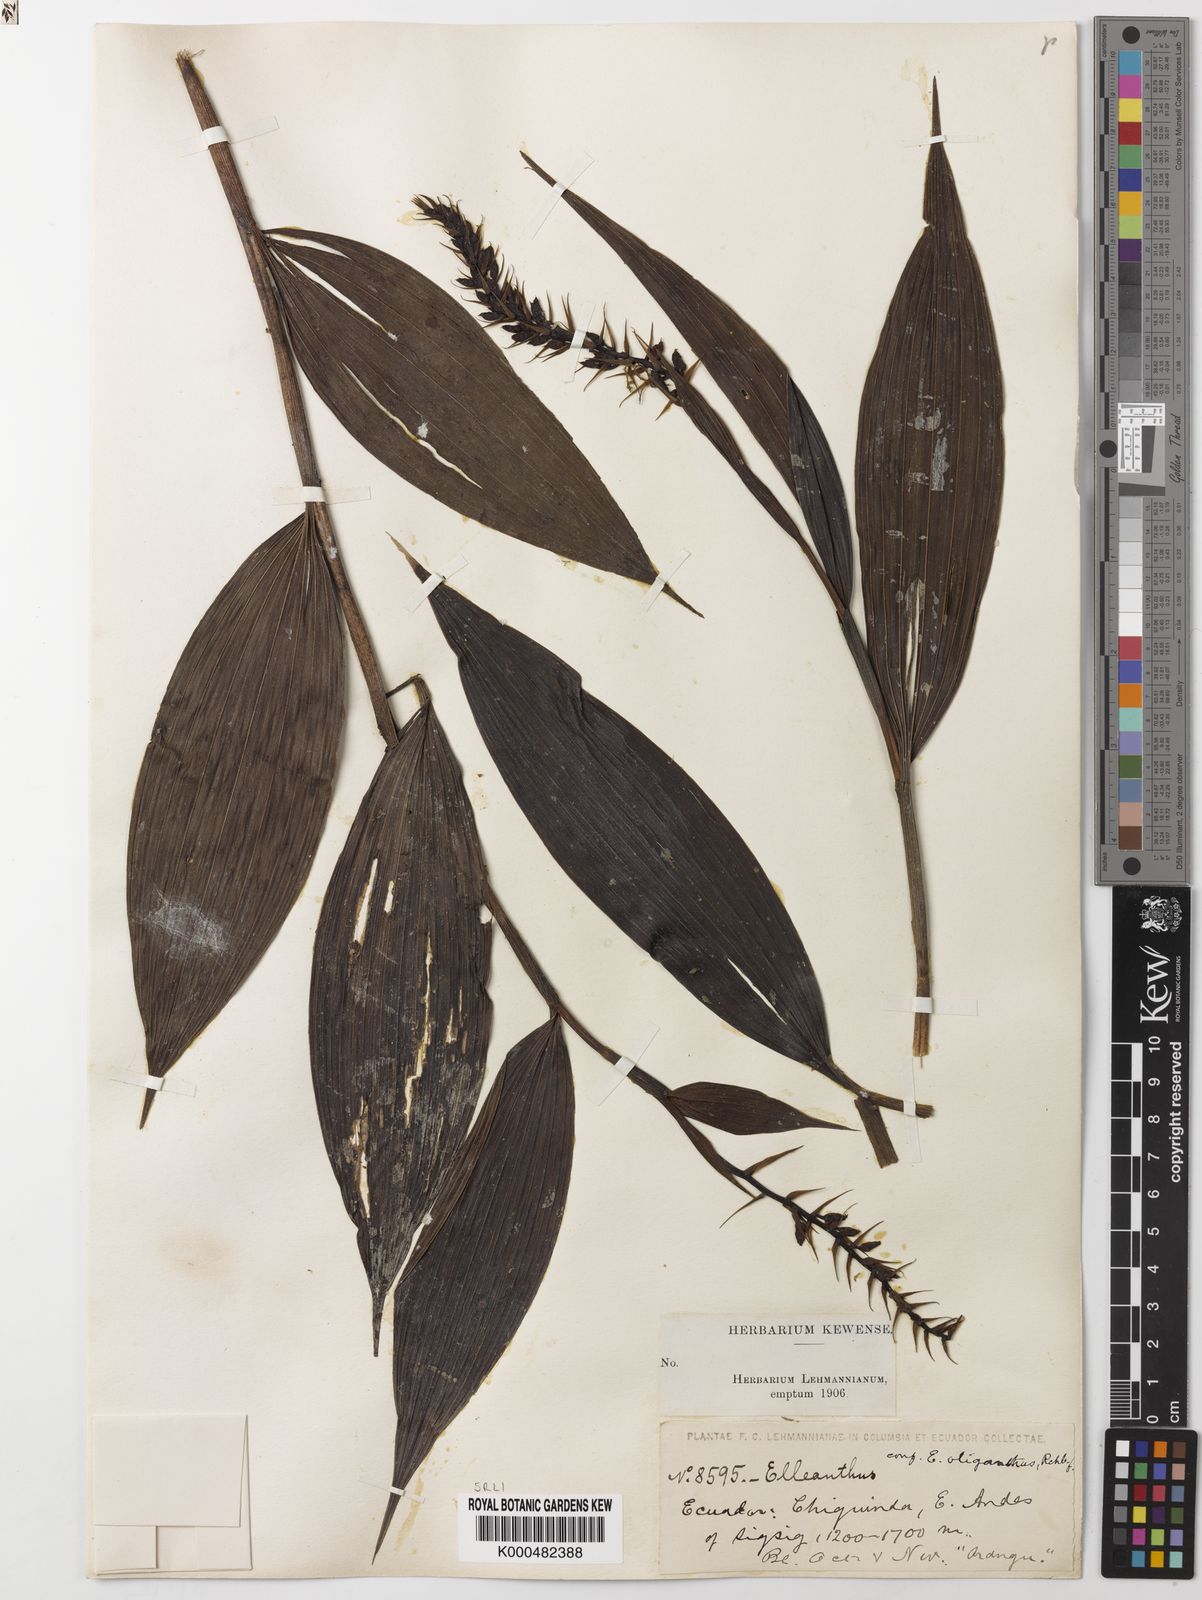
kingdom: Plantae
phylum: Tracheophyta
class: Liliopsida
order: Asparagales
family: Orchidaceae
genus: Elleanthus
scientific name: Elleanthus oliganthus
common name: Sparse blooming elleanthus
